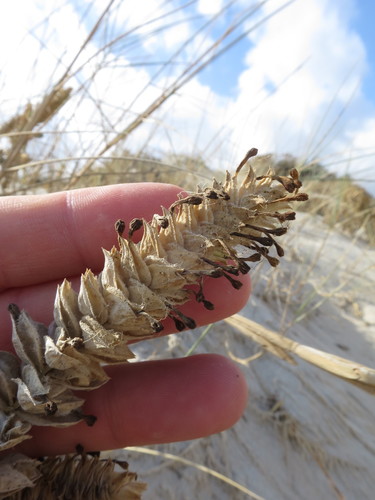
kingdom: Plantae
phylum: Tracheophyta
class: Magnoliopsida
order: Gentianales
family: Rubiaceae
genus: Crucianella
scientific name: Crucianella maritima
